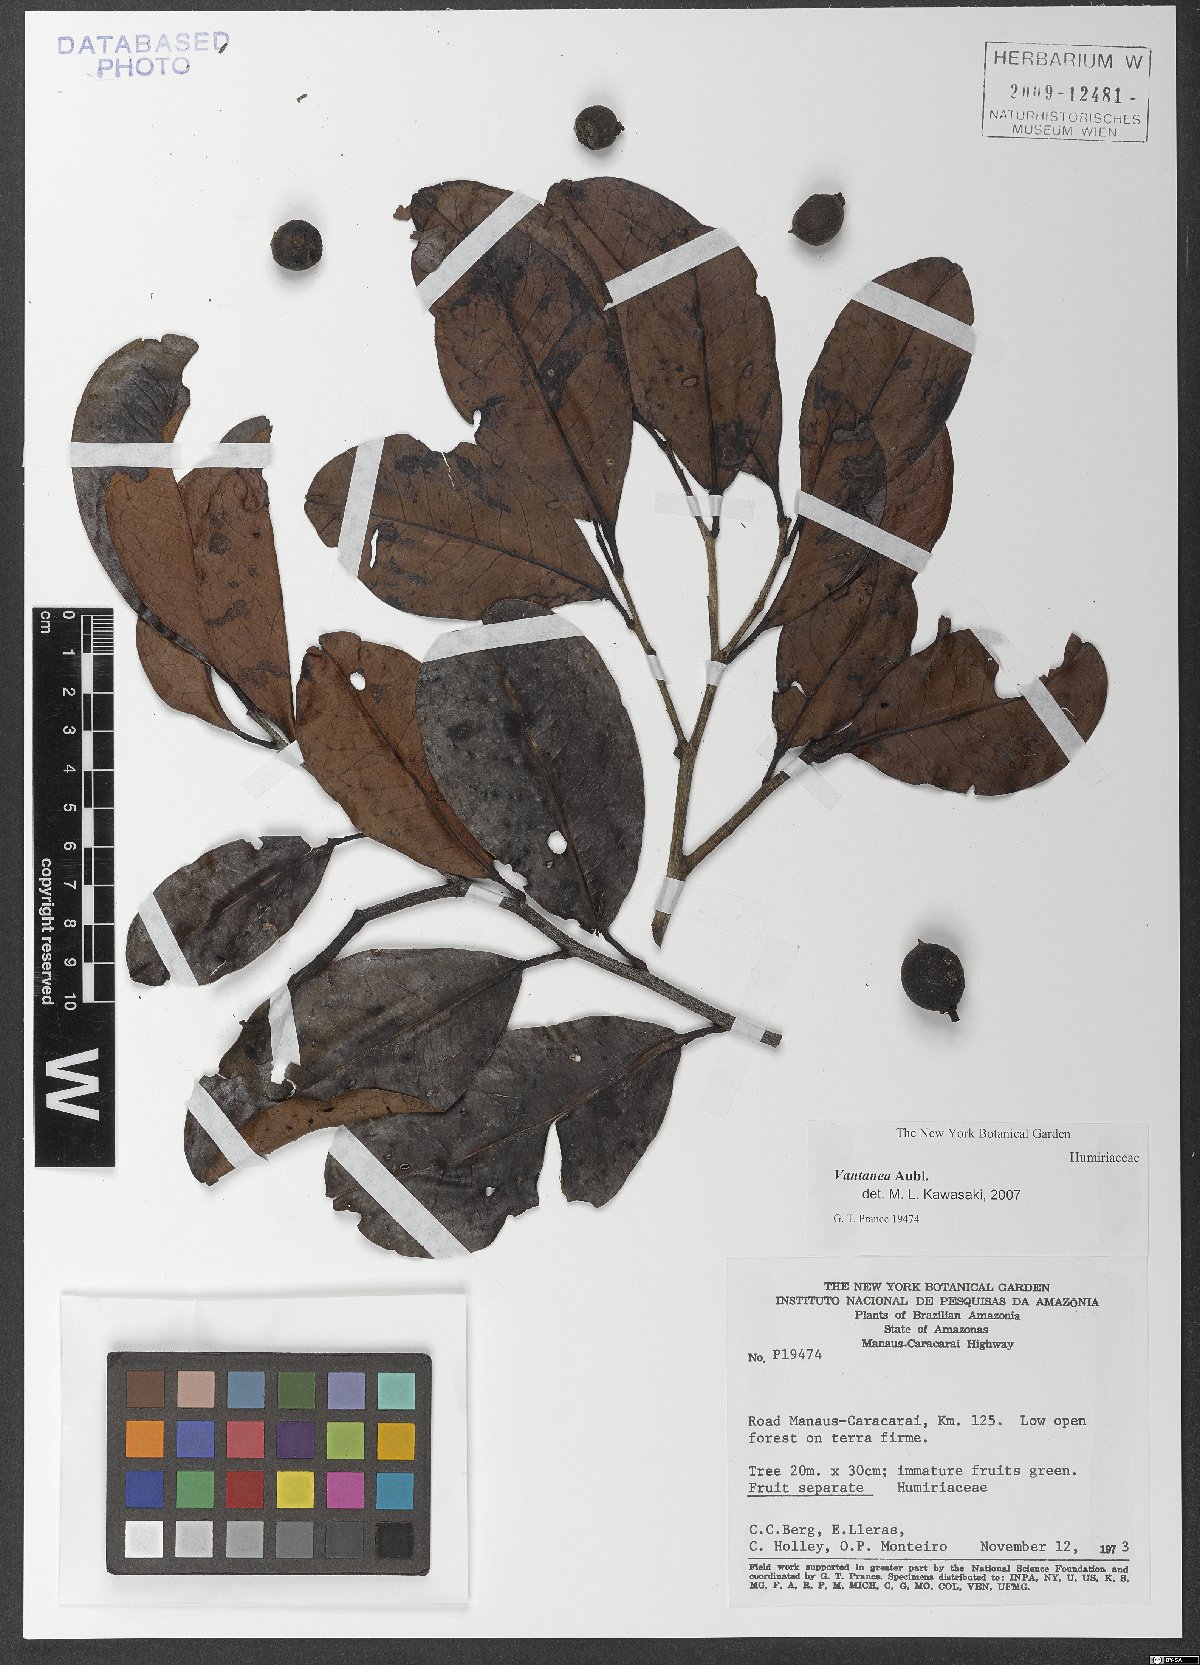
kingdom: Plantae
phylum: Tracheophyta
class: Magnoliopsida
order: Malpighiales
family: Humiriaceae
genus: Vantanea
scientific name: Vantanea
